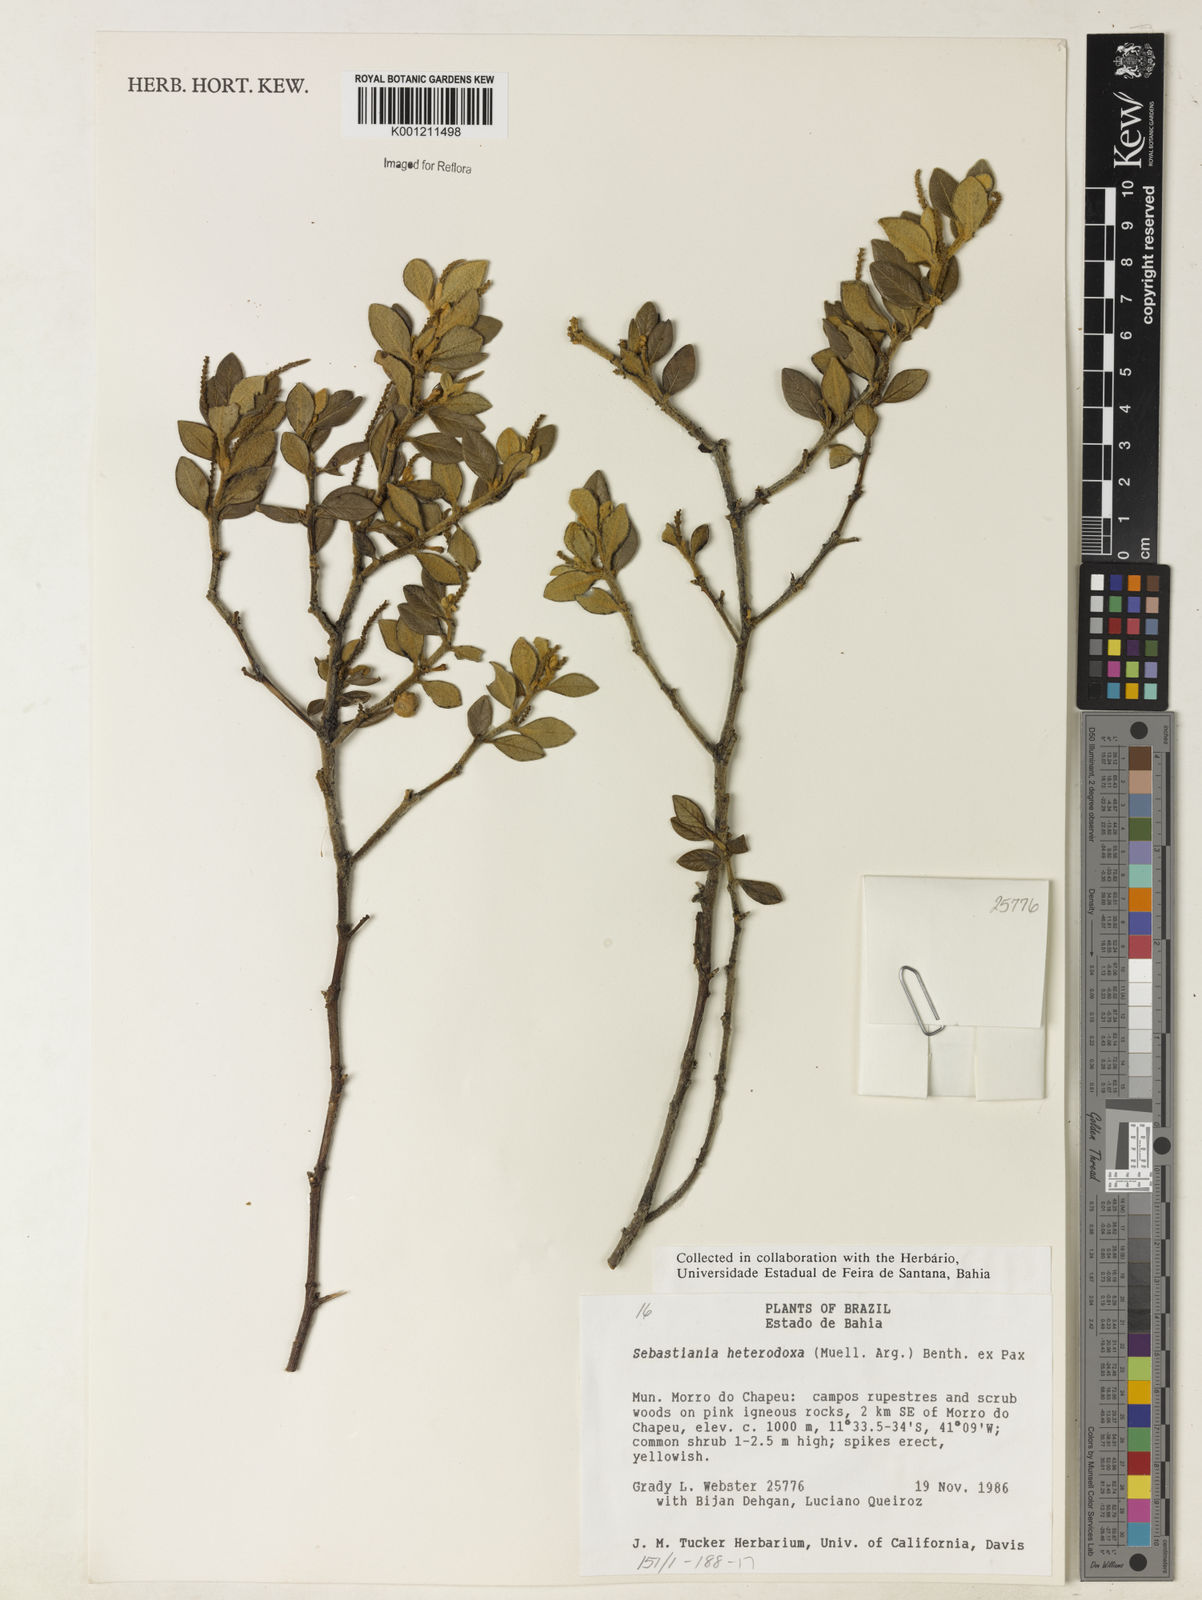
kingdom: Plantae
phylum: Tracheophyta
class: Magnoliopsida
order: Malpighiales
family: Euphorbiaceae
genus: Microstachys
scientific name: Microstachys
